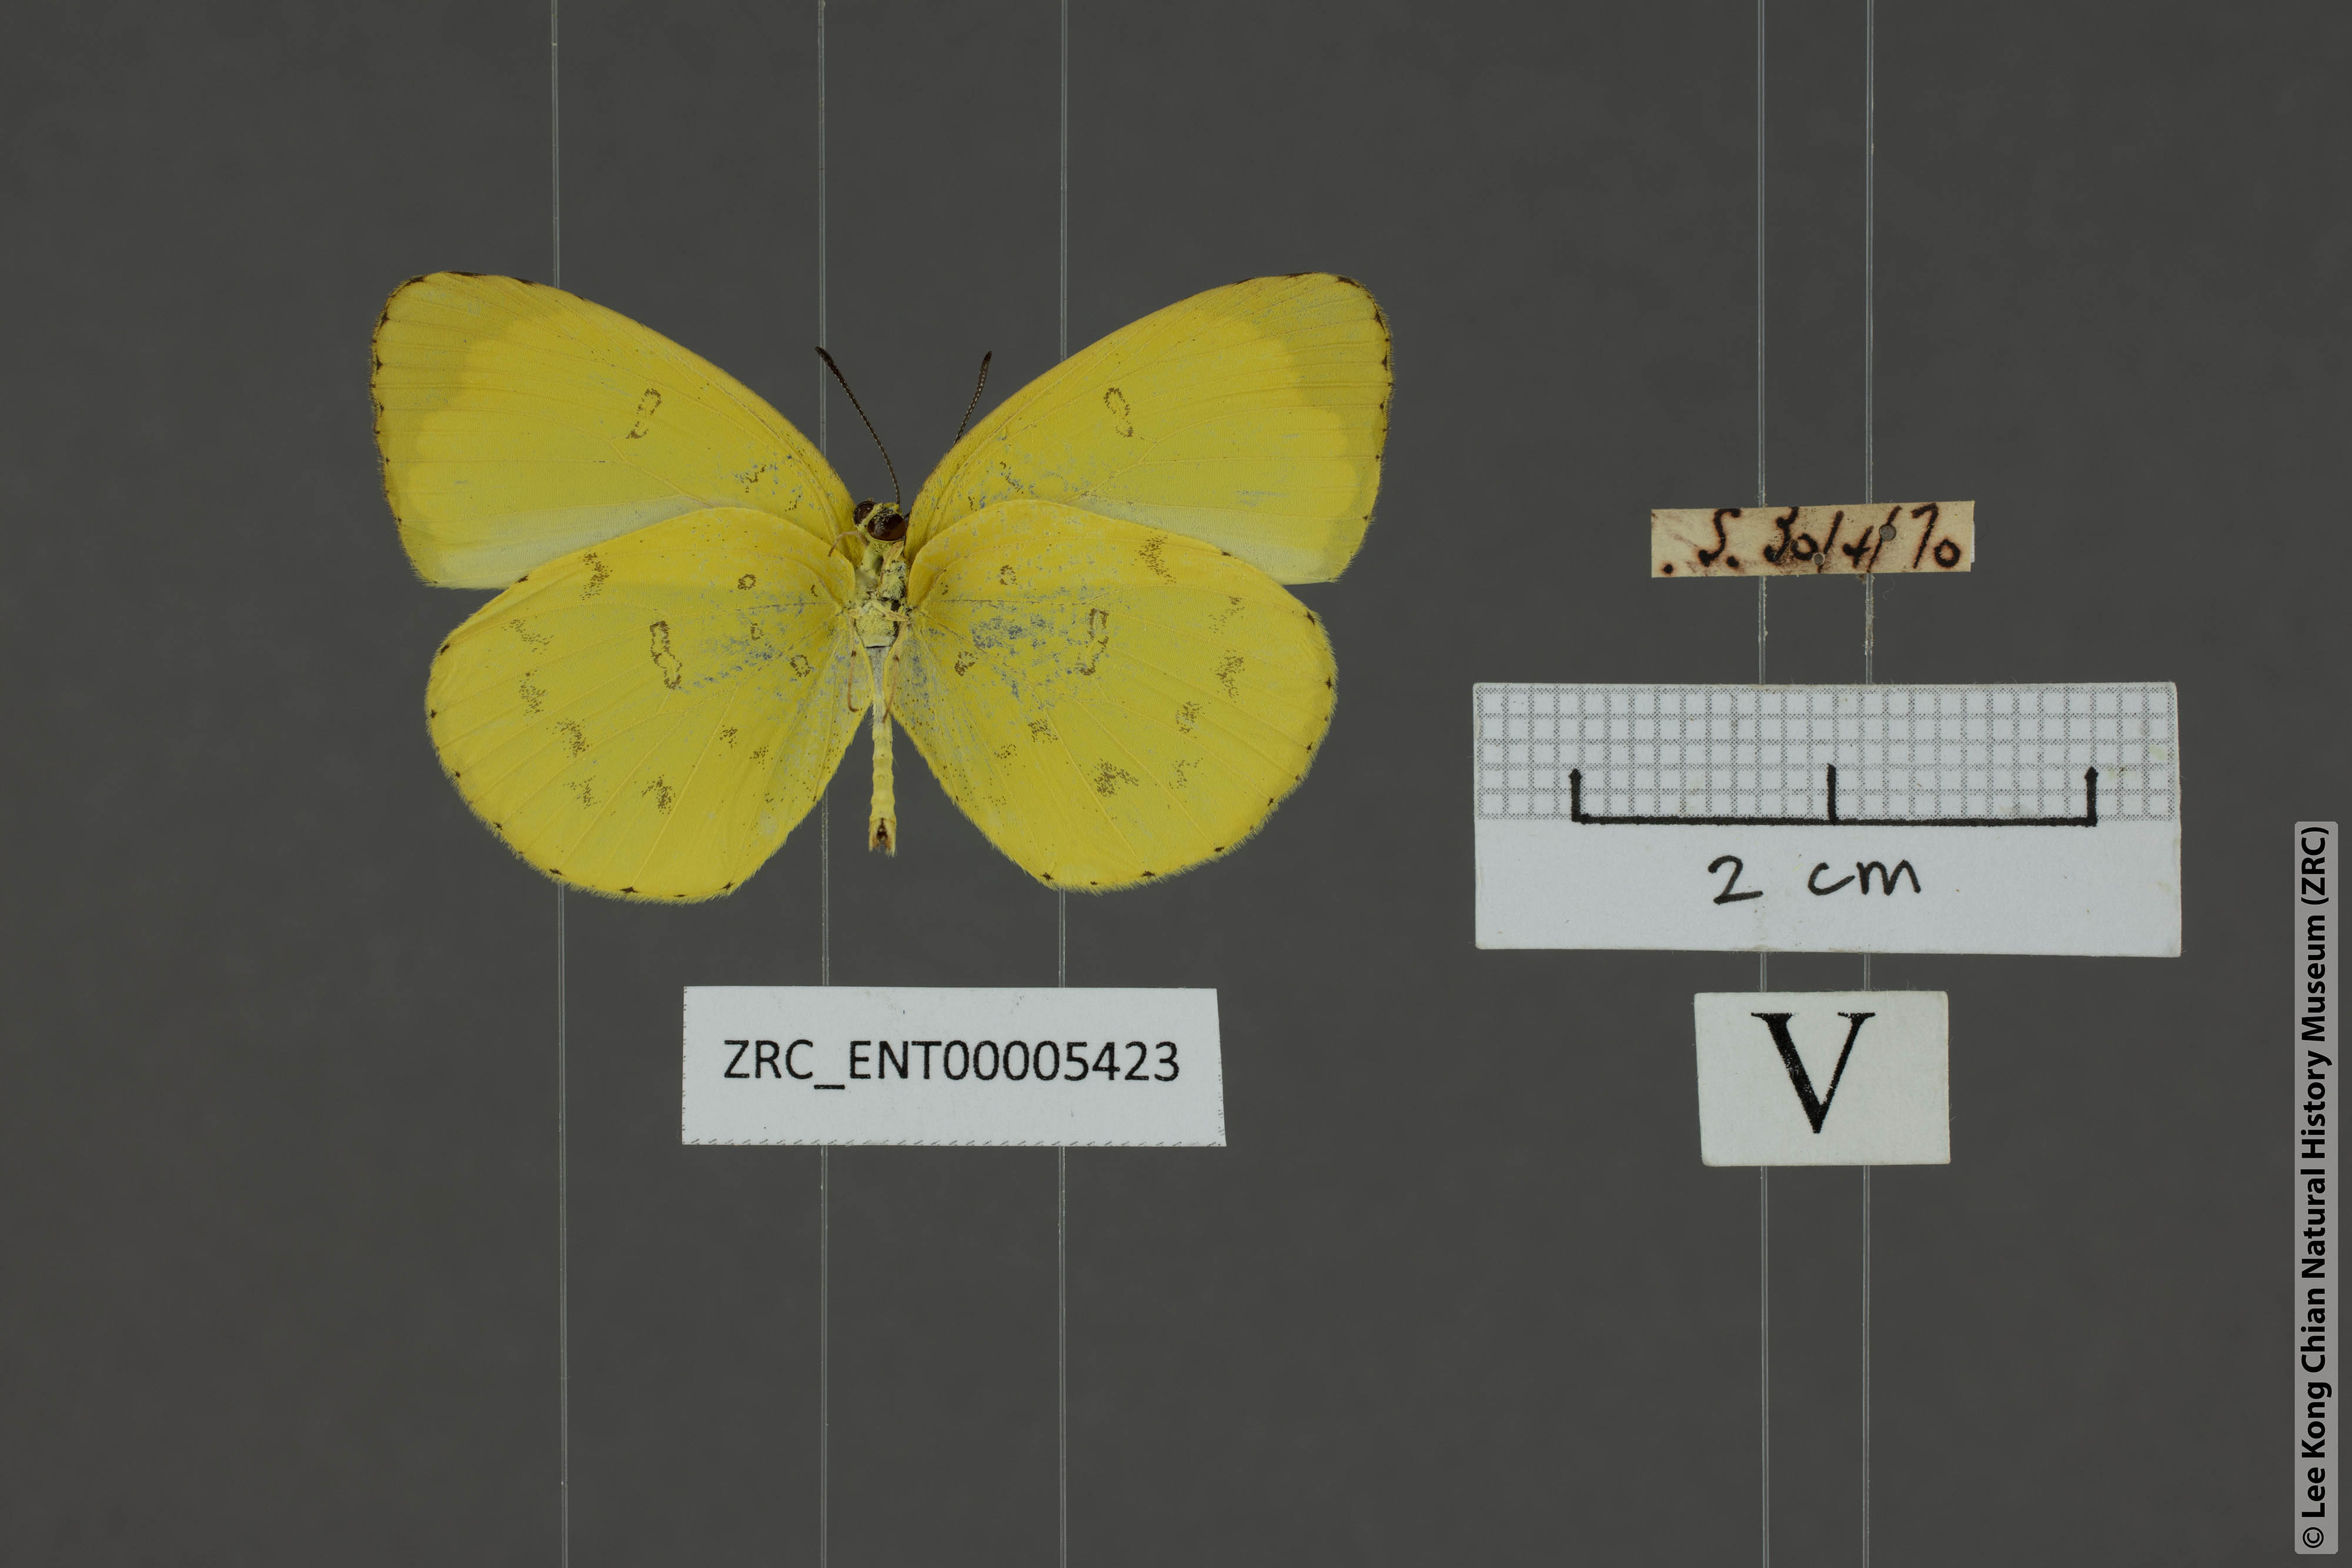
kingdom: Animalia
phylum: Arthropoda
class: Insecta
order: Lepidoptera
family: Pieridae
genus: Eurema
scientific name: Eurema blanda
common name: Three-spot grass yellow
